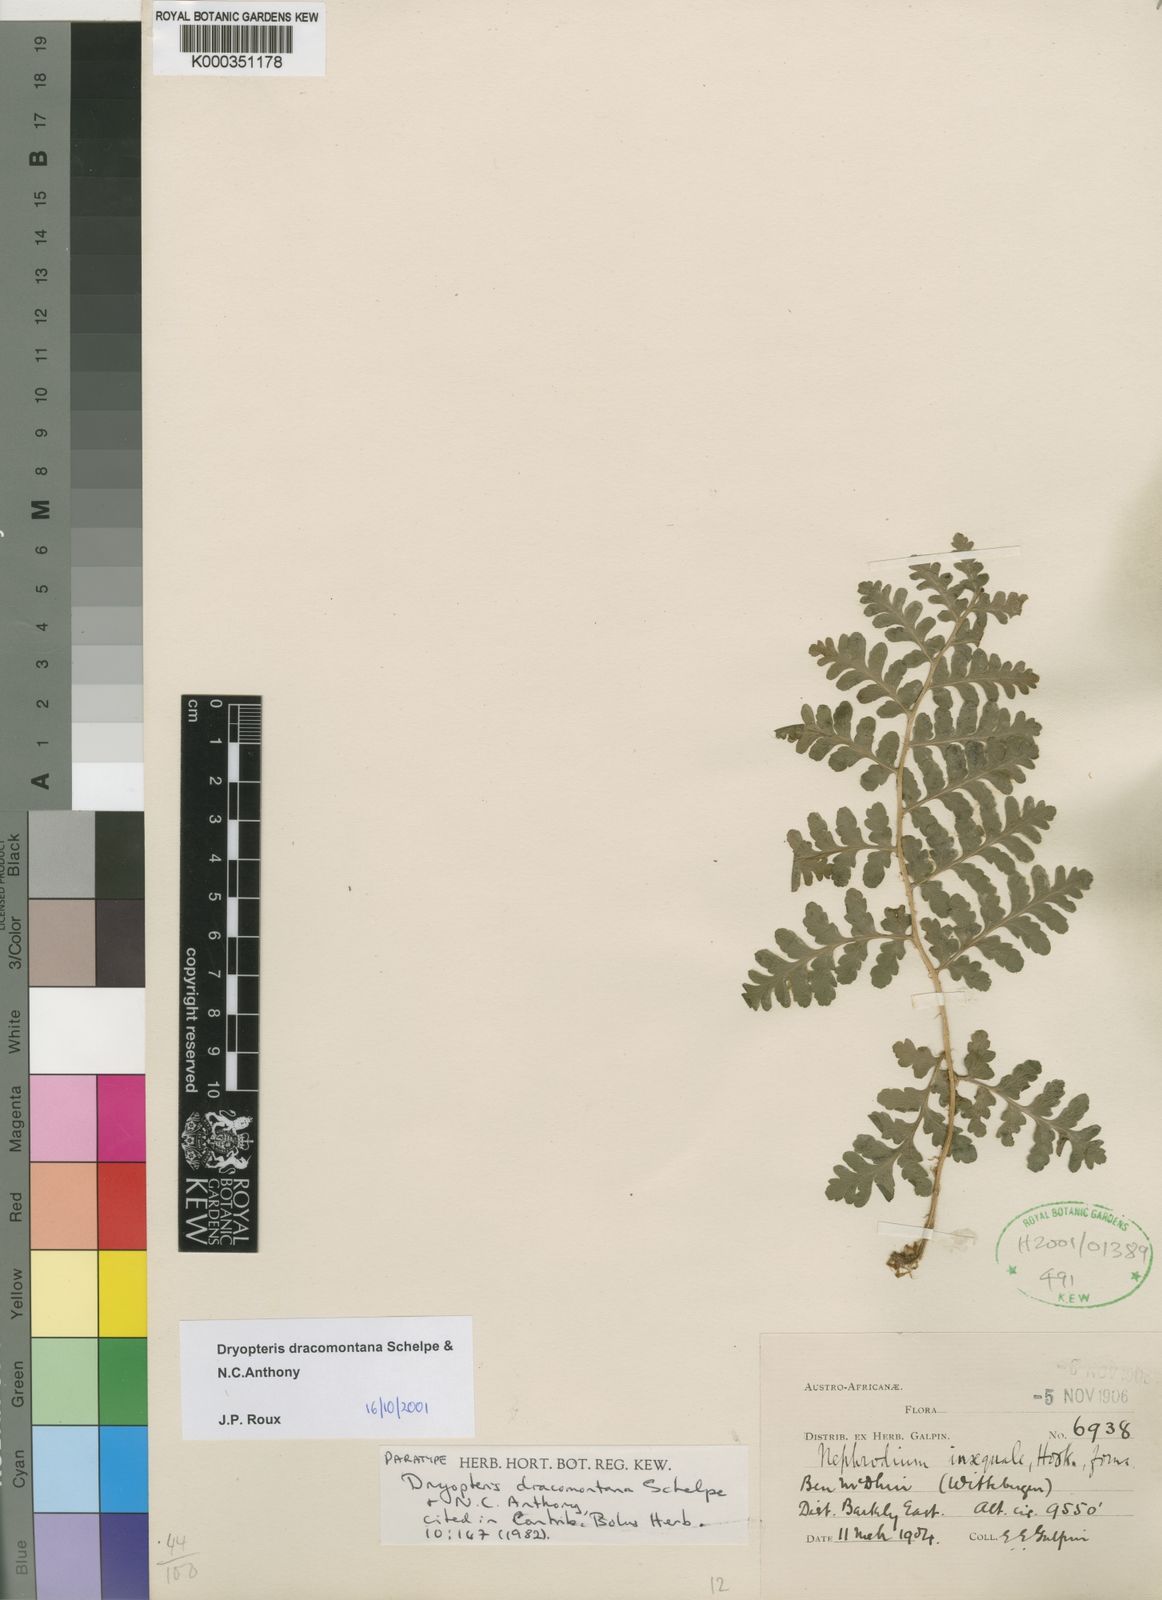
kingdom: Plantae
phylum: Tracheophyta
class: Polypodiopsida
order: Polypodiales
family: Dryopteridaceae
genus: Dryopteris
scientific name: Dryopteris dracomontana
